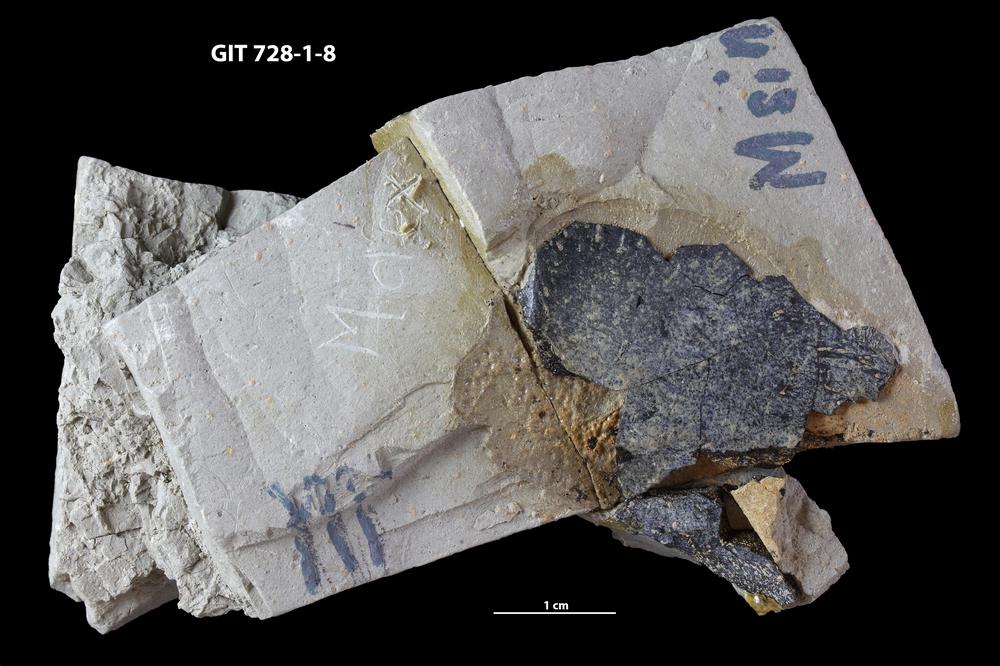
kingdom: Animalia
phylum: Chordata
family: Coccosteidae
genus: Watsonosteus
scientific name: Watsonosteus
